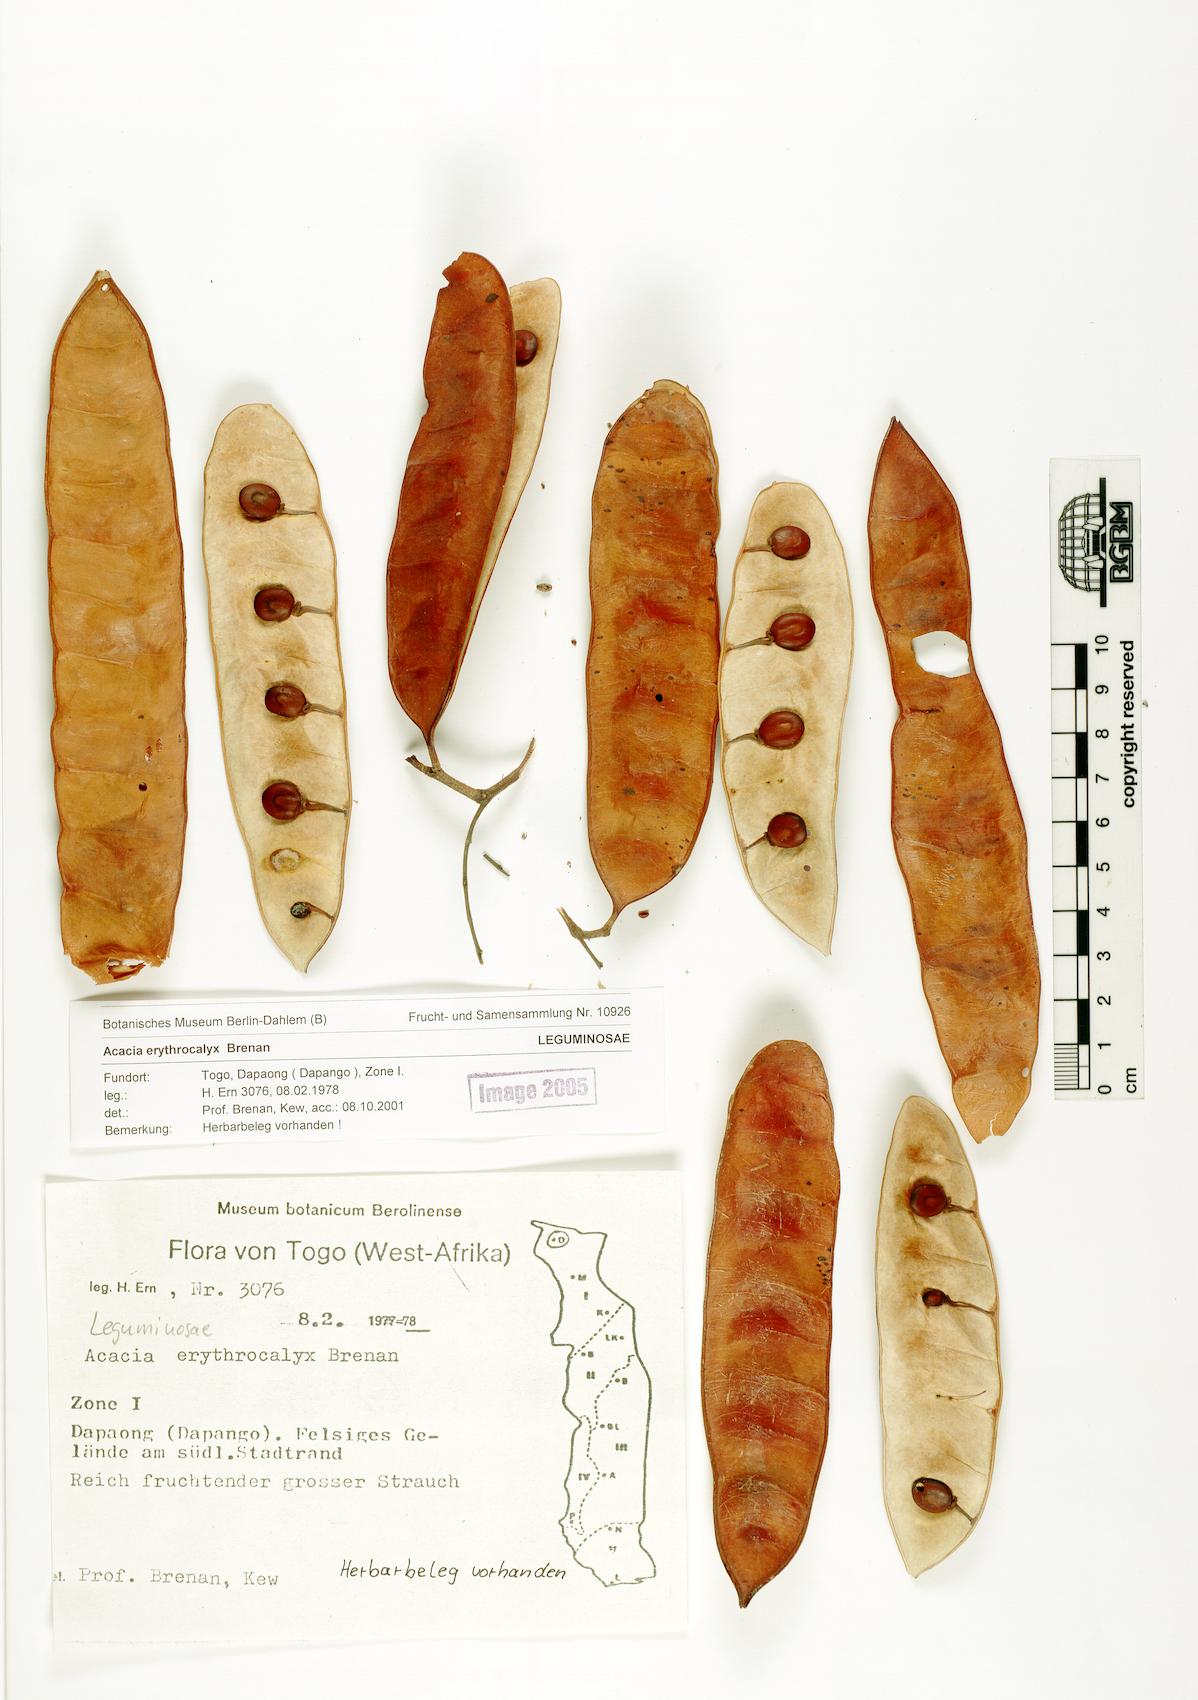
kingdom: Plantae
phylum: Tracheophyta
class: Magnoliopsida
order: Fabales
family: Fabaceae
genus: Senegalia
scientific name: Senegalia erythrocalyx
